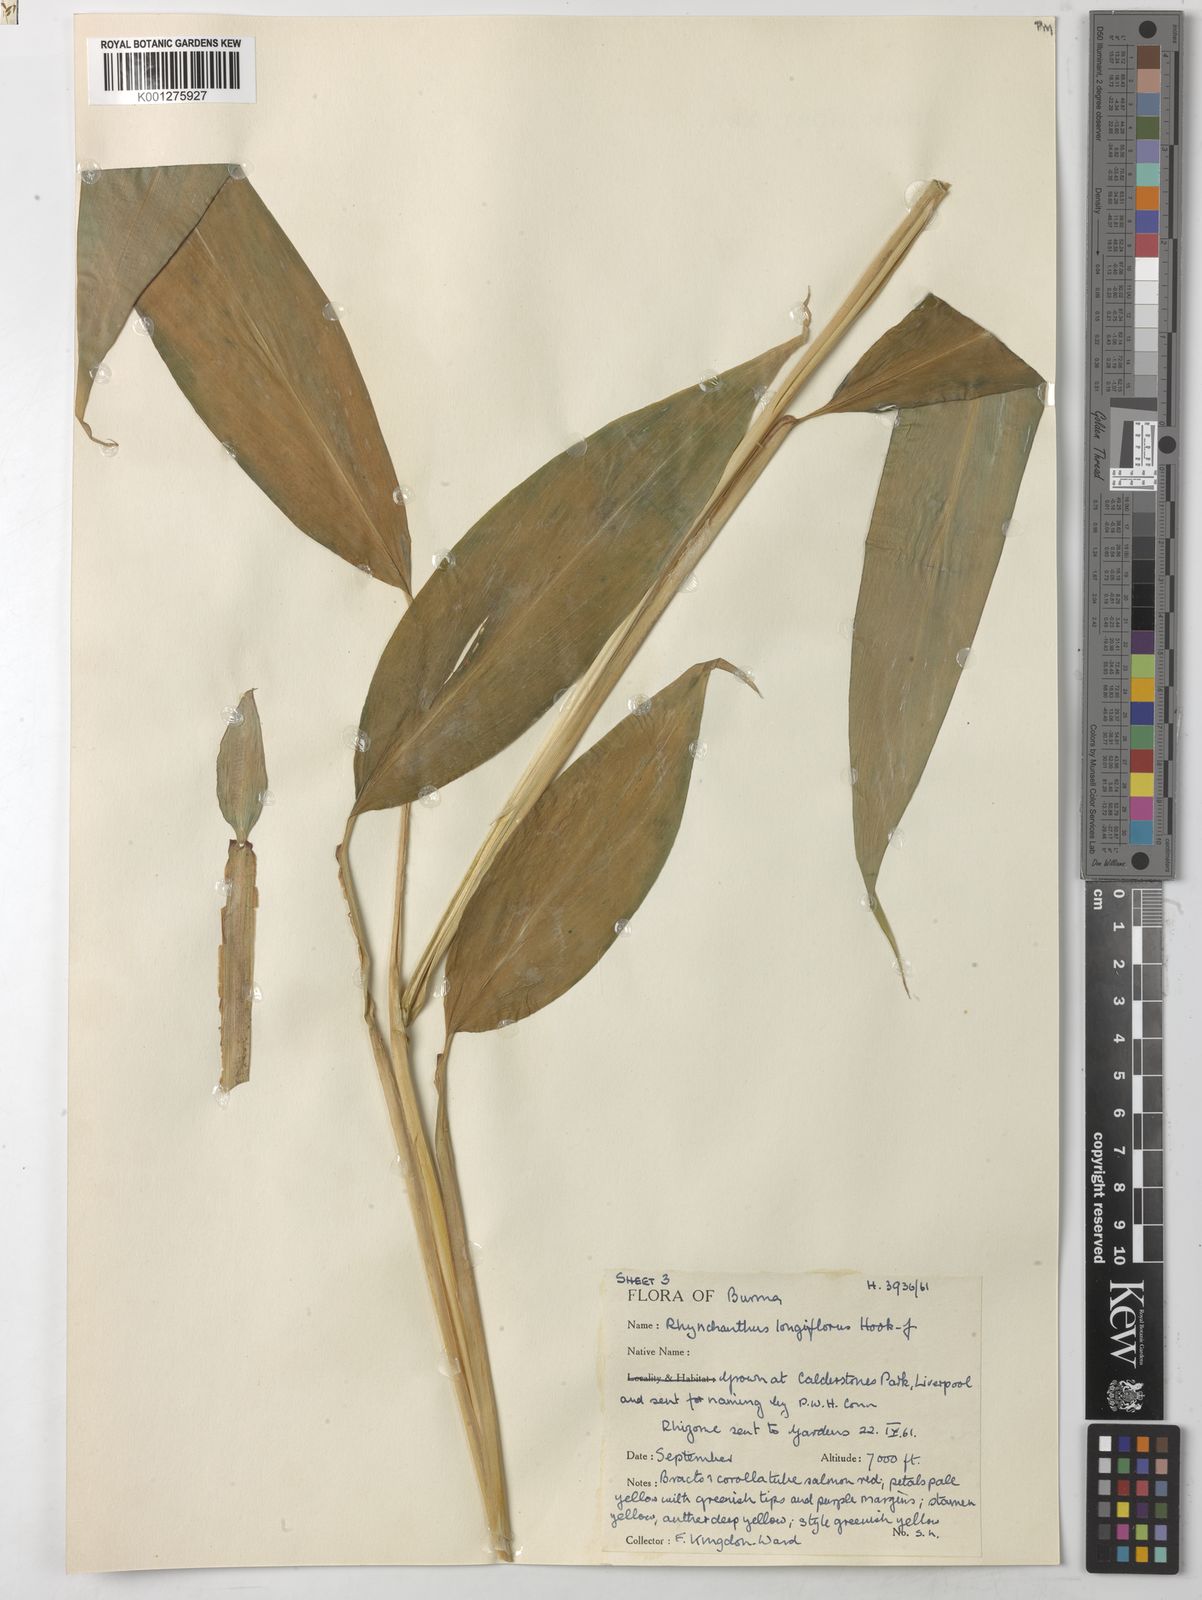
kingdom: Plantae
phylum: Tracheophyta
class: Liliopsida
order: Zingiberales
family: Zingiberaceae
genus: Rhynchanthus
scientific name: Rhynchanthus longiflorus
